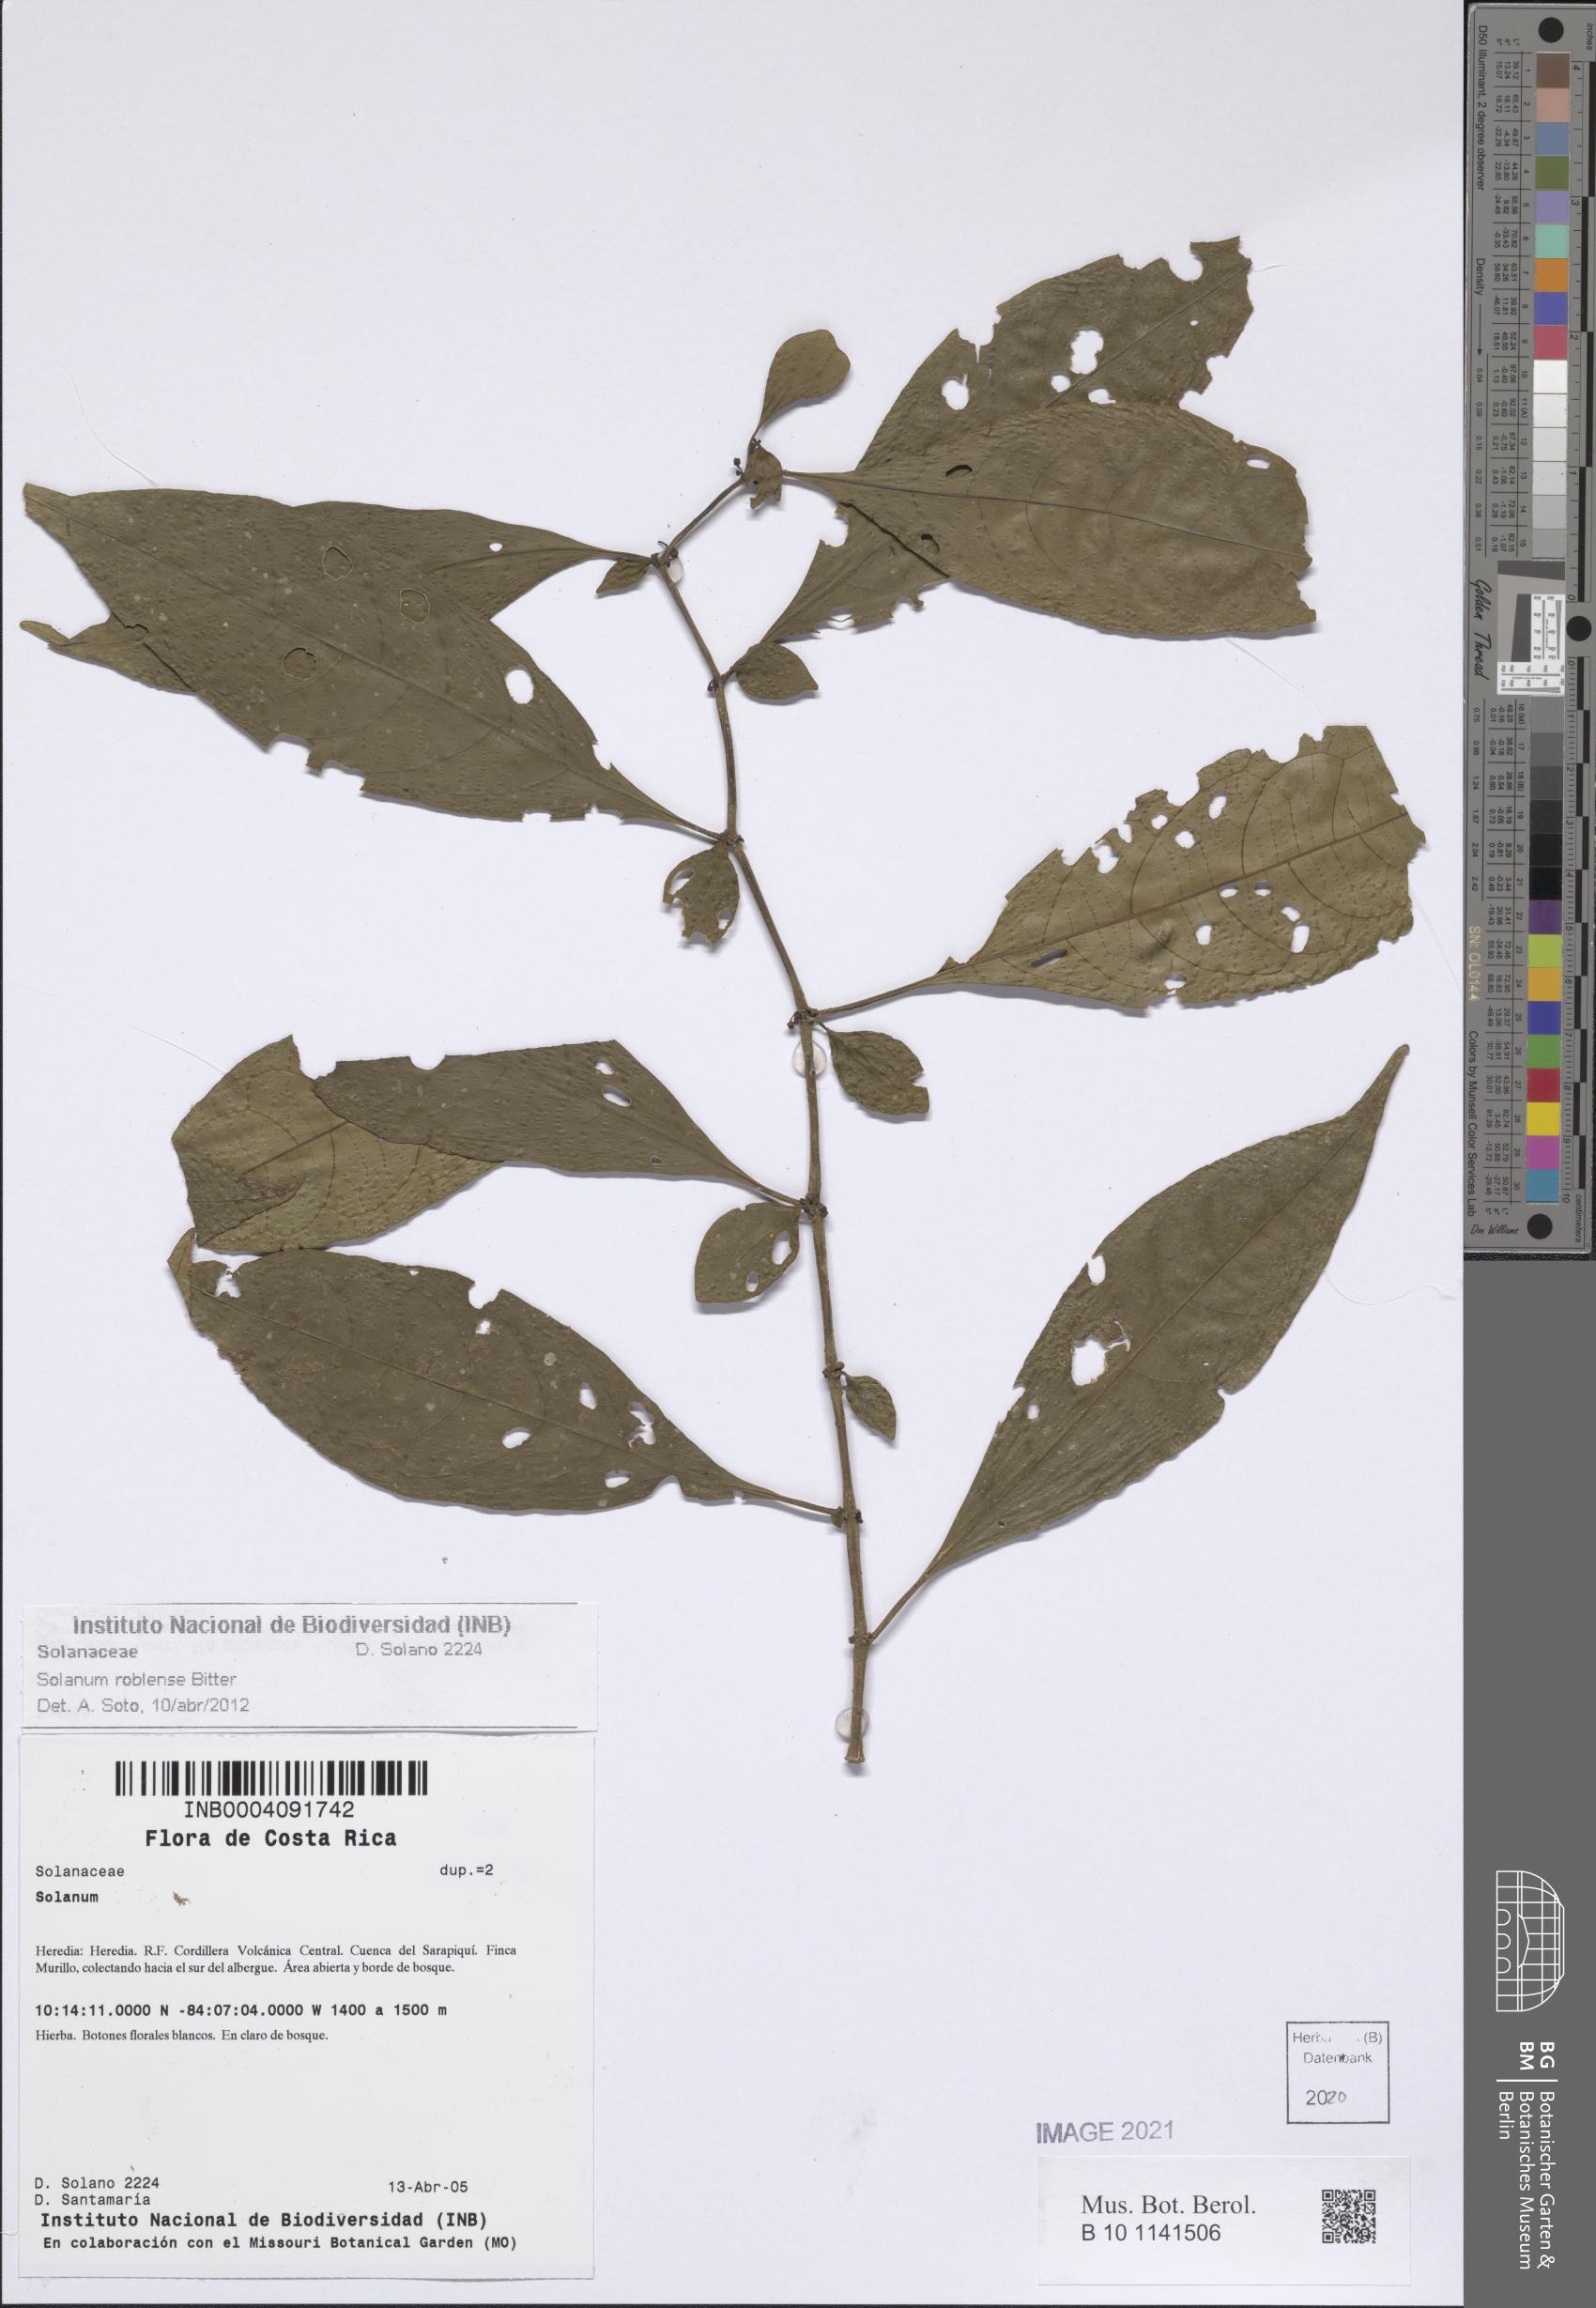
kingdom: Plantae
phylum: Tracheophyta
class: Magnoliopsida
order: Solanales
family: Solanaceae
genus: Solanum
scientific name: Solanum roblense
